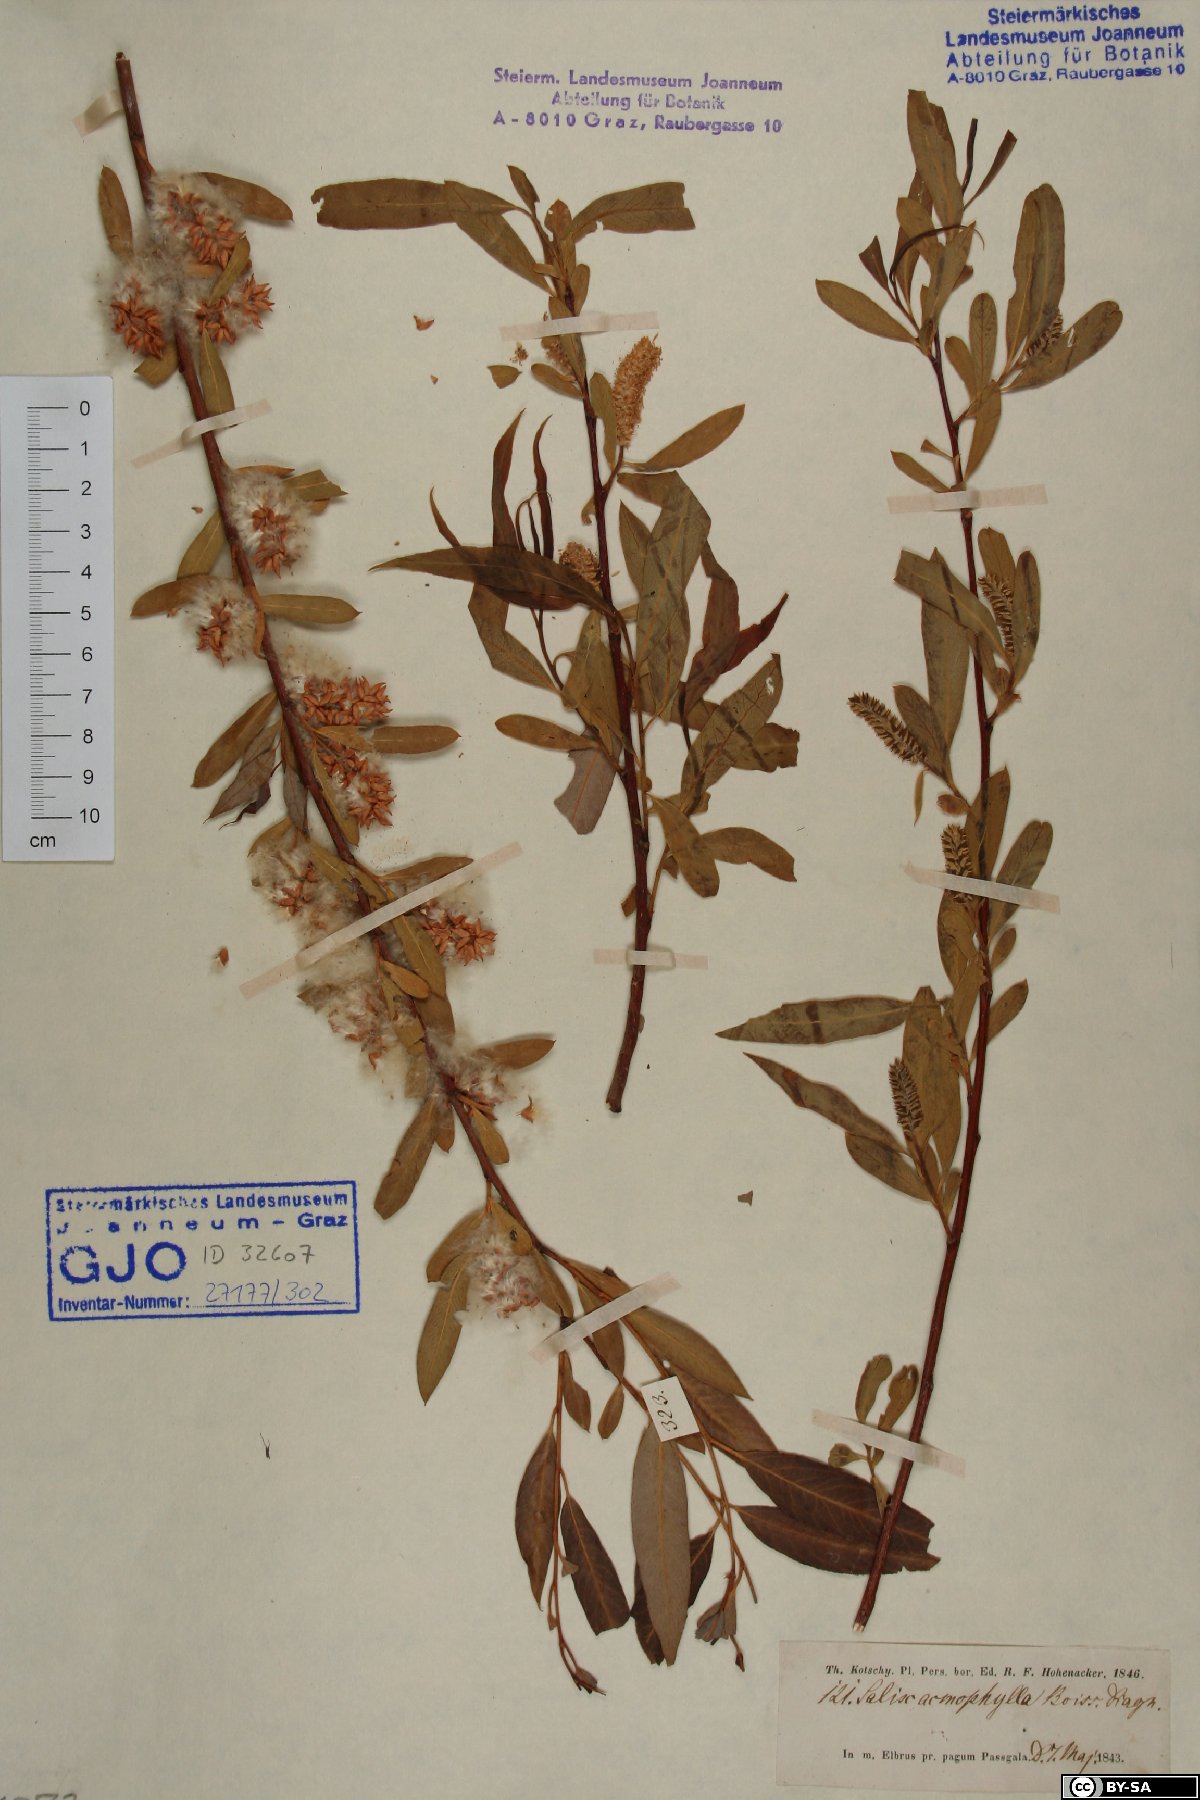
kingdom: Plantae
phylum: Tracheophyta
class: Magnoliopsida
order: Malpighiales
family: Salicaceae
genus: Salix
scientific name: Salix acmophylla
